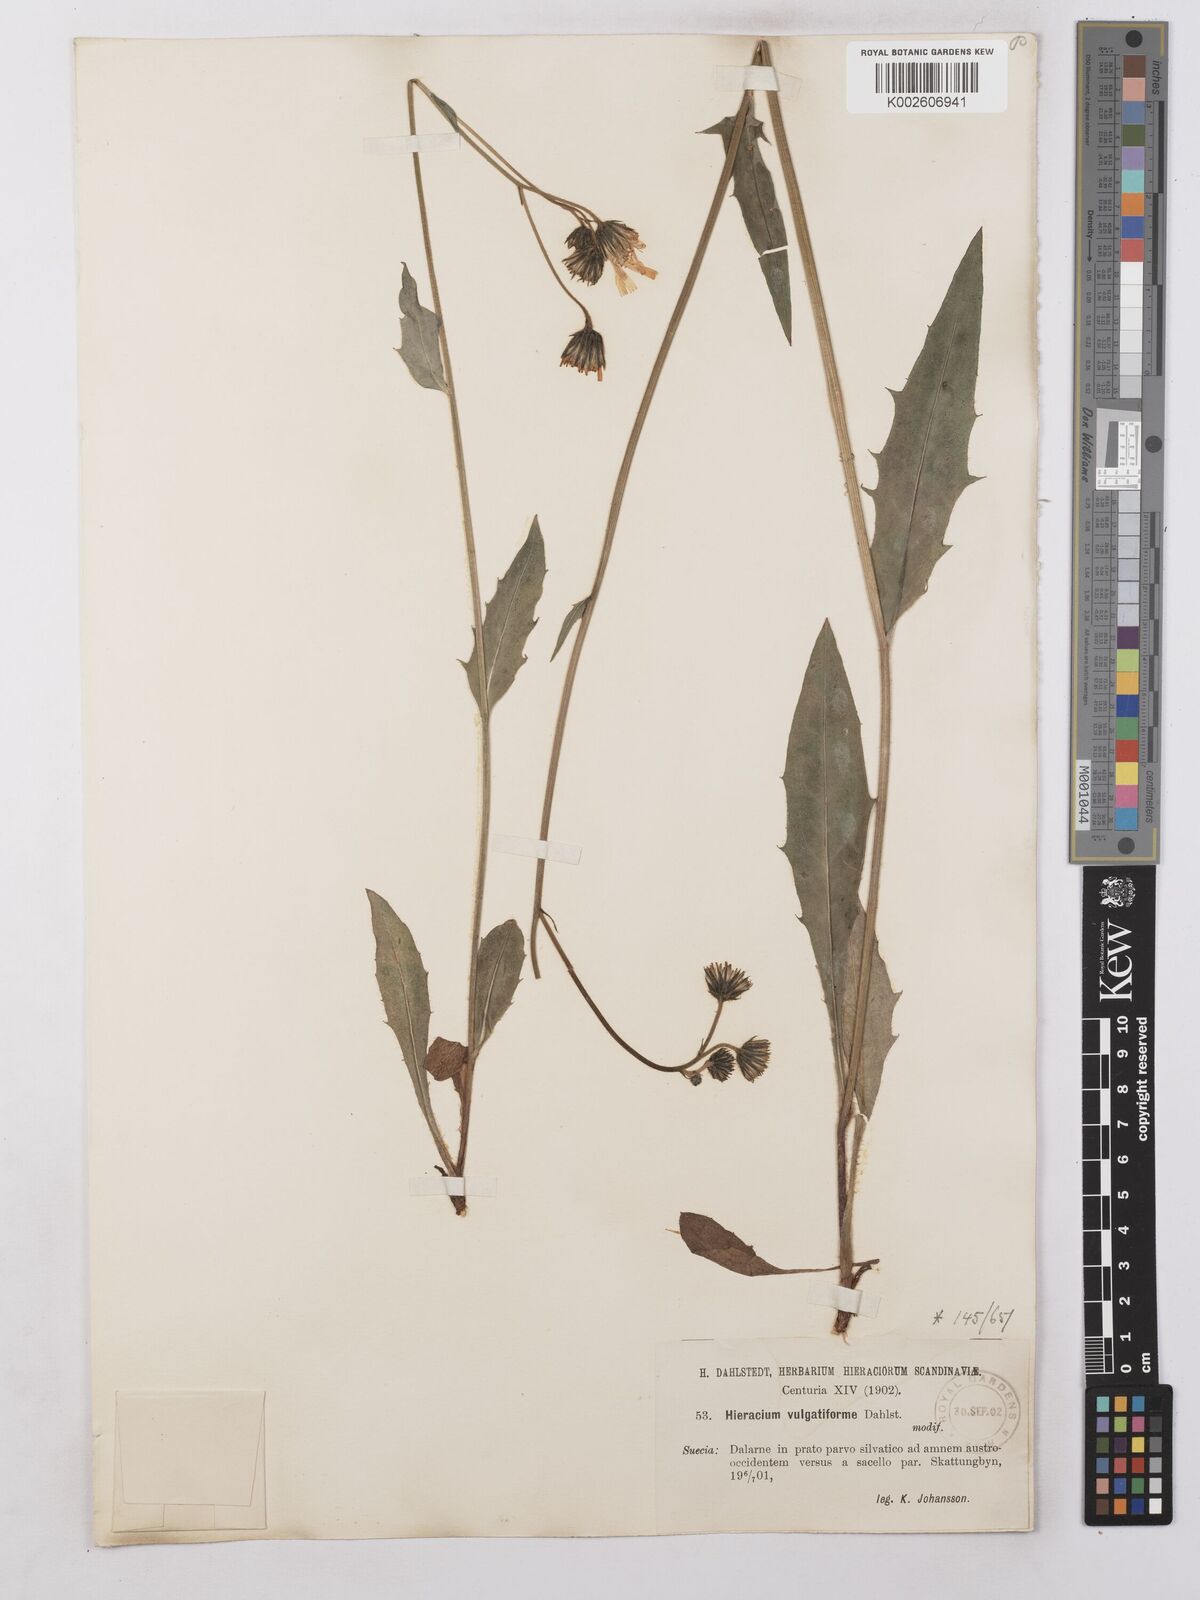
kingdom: Plantae
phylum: Tracheophyta
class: Magnoliopsida
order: Asterales
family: Asteraceae
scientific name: Asteraceae
